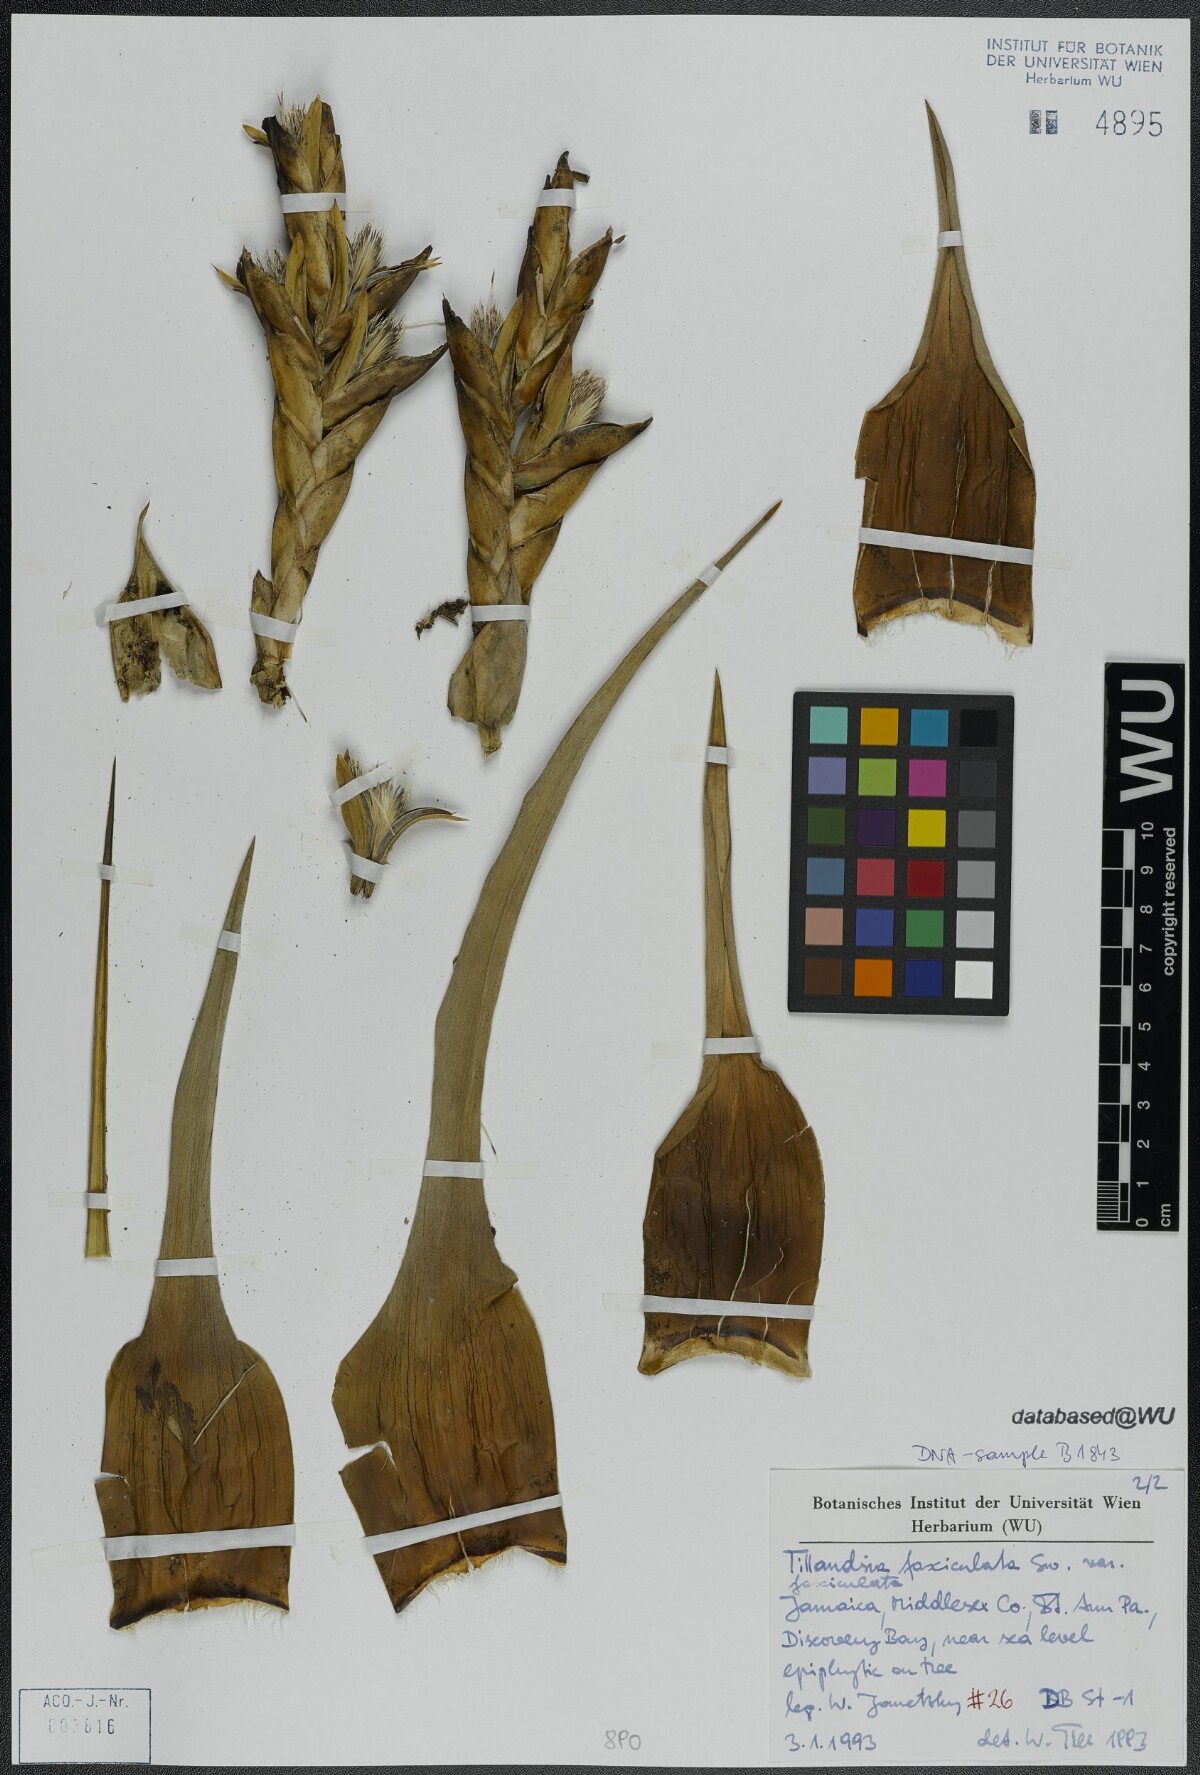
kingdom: Plantae
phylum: Tracheophyta
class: Liliopsida
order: Poales
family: Bromeliaceae
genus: Tillandsia
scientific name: Tillandsia fasciculata
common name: Giant airplant
